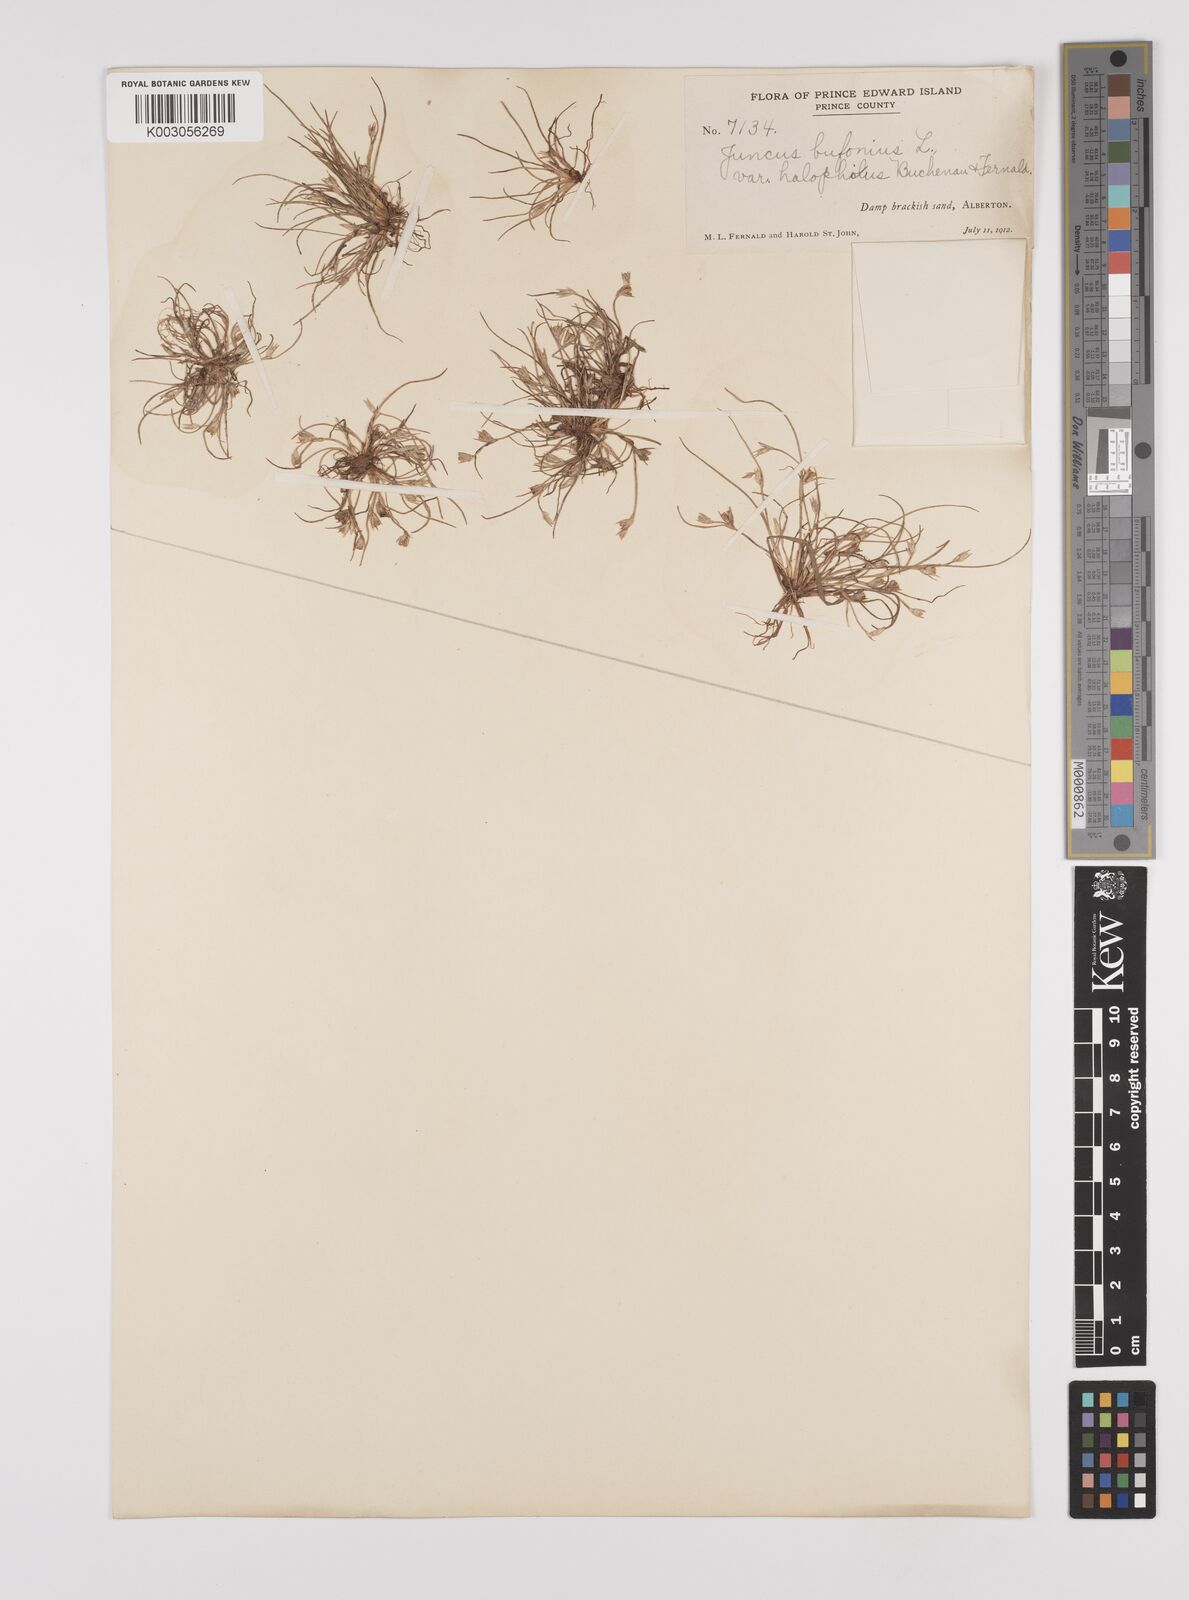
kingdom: Plantae
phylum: Tracheophyta
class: Liliopsida
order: Poales
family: Juncaceae
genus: Juncus
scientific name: Juncus ranarius
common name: Frog rush
